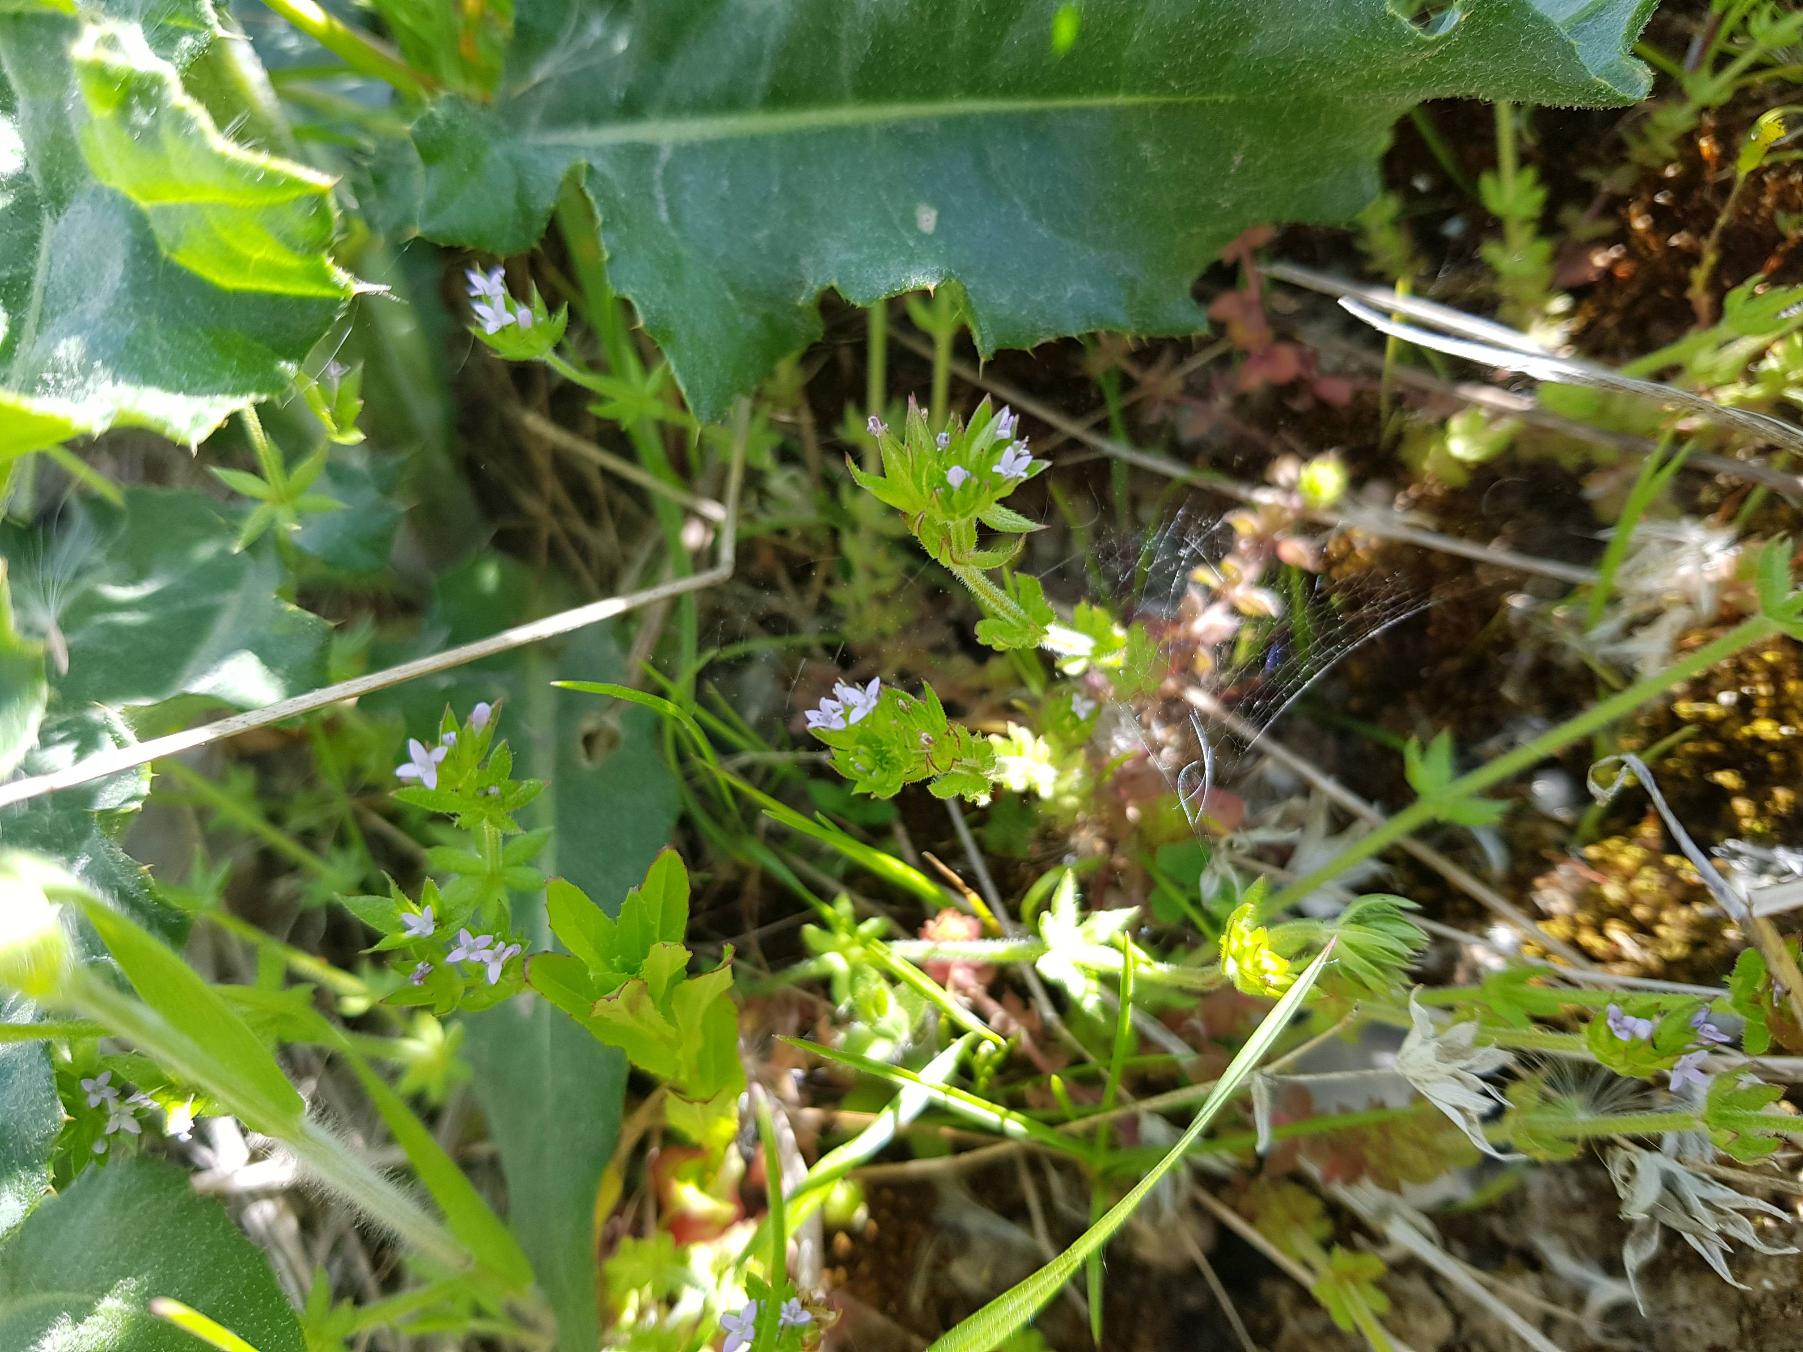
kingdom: Plantae
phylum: Tracheophyta
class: Magnoliopsida
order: Gentianales
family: Rubiaceae
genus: Sherardia
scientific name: Sherardia arvensis
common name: Blåstjerne
